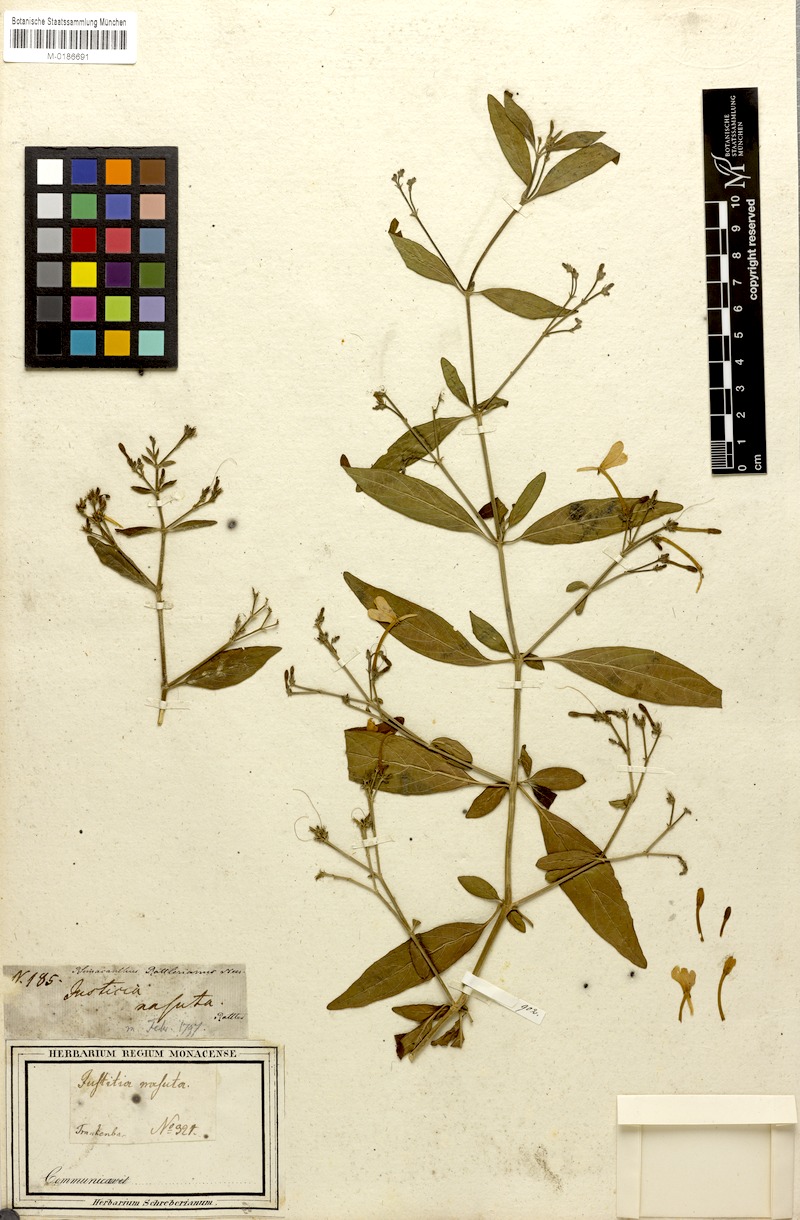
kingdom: Plantae
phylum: Tracheophyta
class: Magnoliopsida
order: Lamiales
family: Acanthaceae
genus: Rhinacanthus
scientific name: Rhinacanthus nasutus
